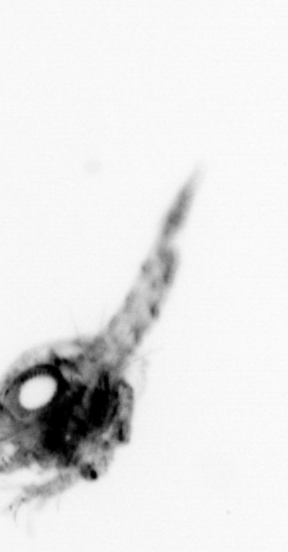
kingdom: Animalia
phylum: Arthropoda
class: Malacostraca
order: Decapoda
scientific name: Decapoda
